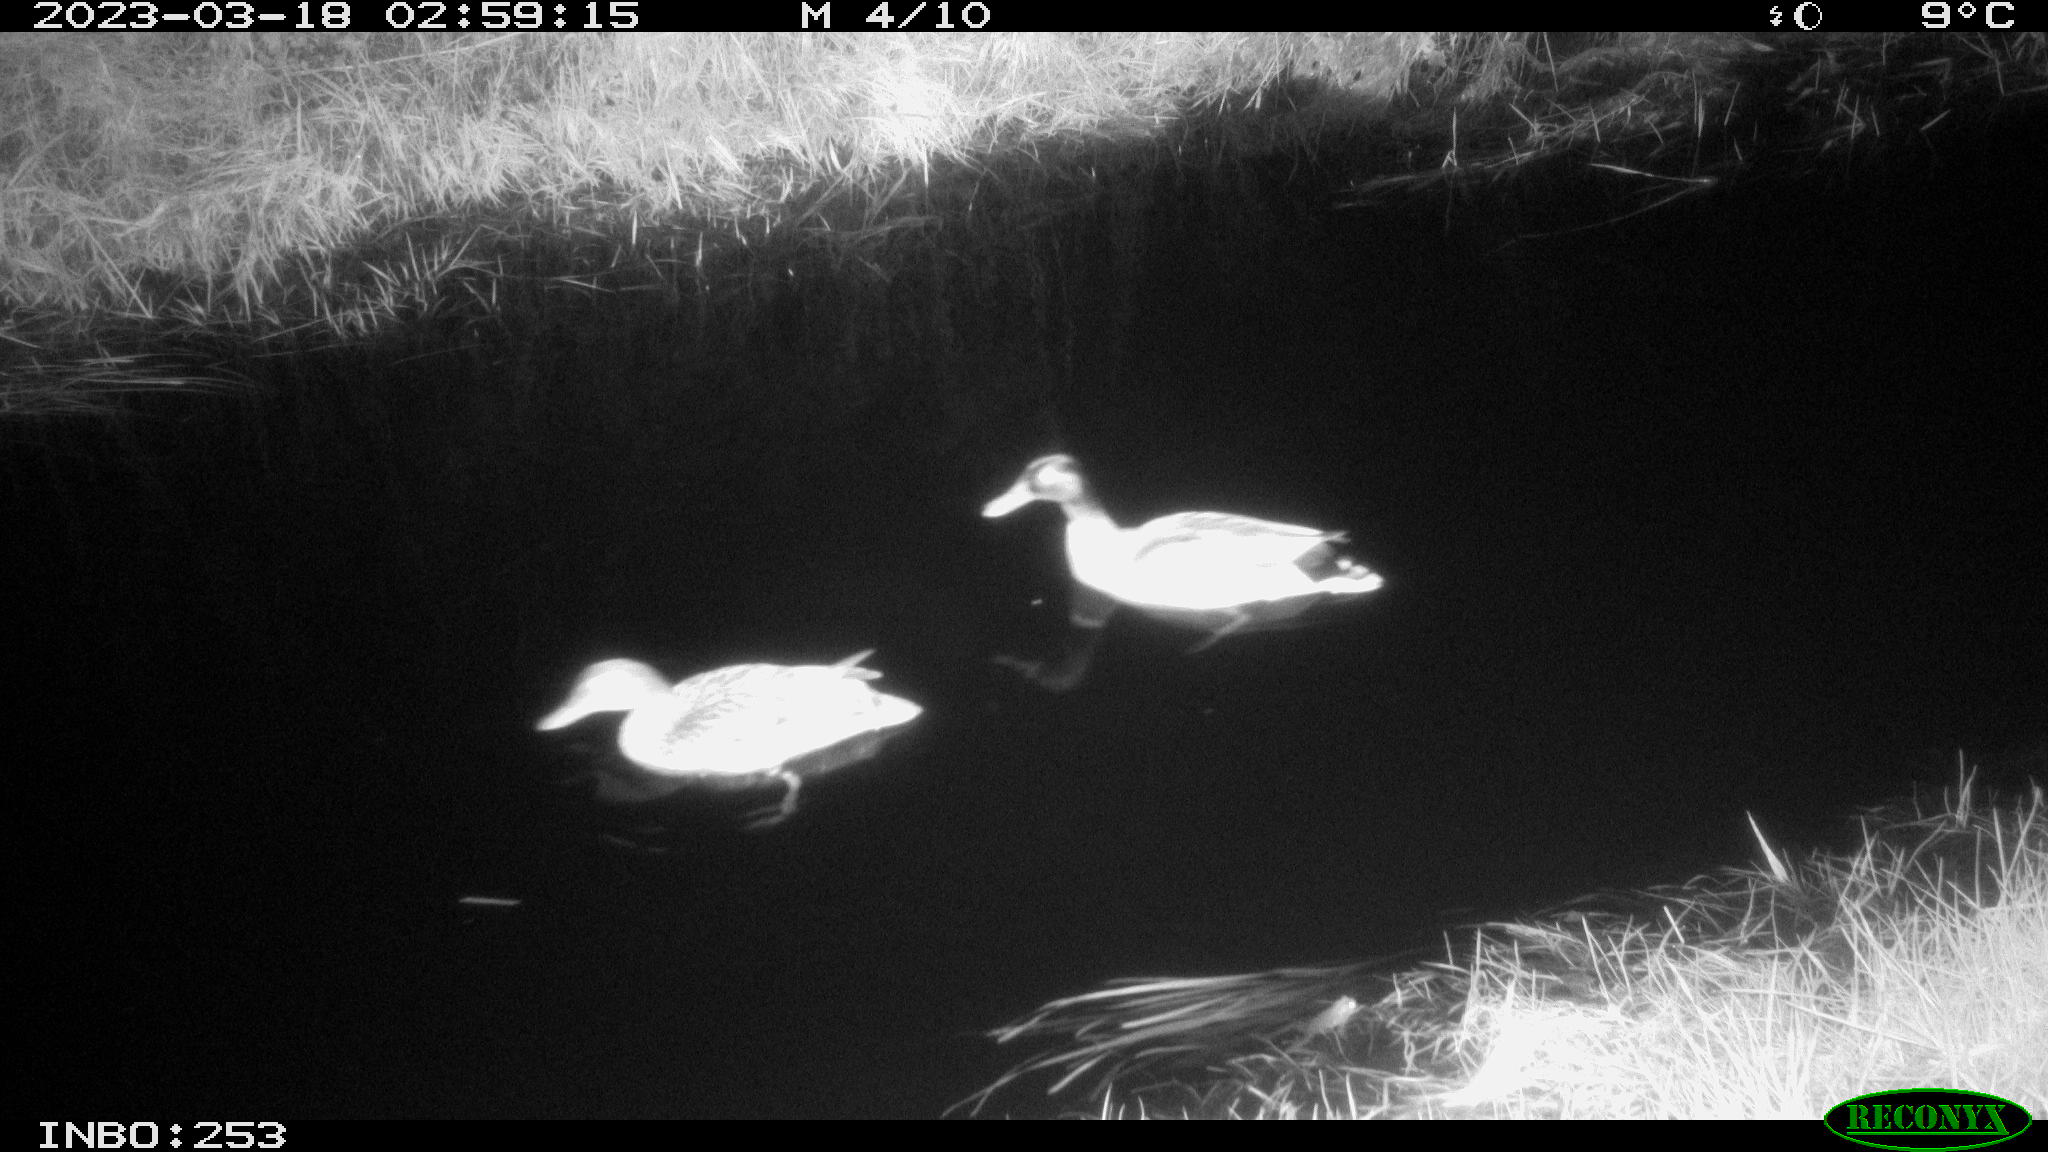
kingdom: Animalia
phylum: Chordata
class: Aves
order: Anseriformes
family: Anatidae
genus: Anas
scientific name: Anas
